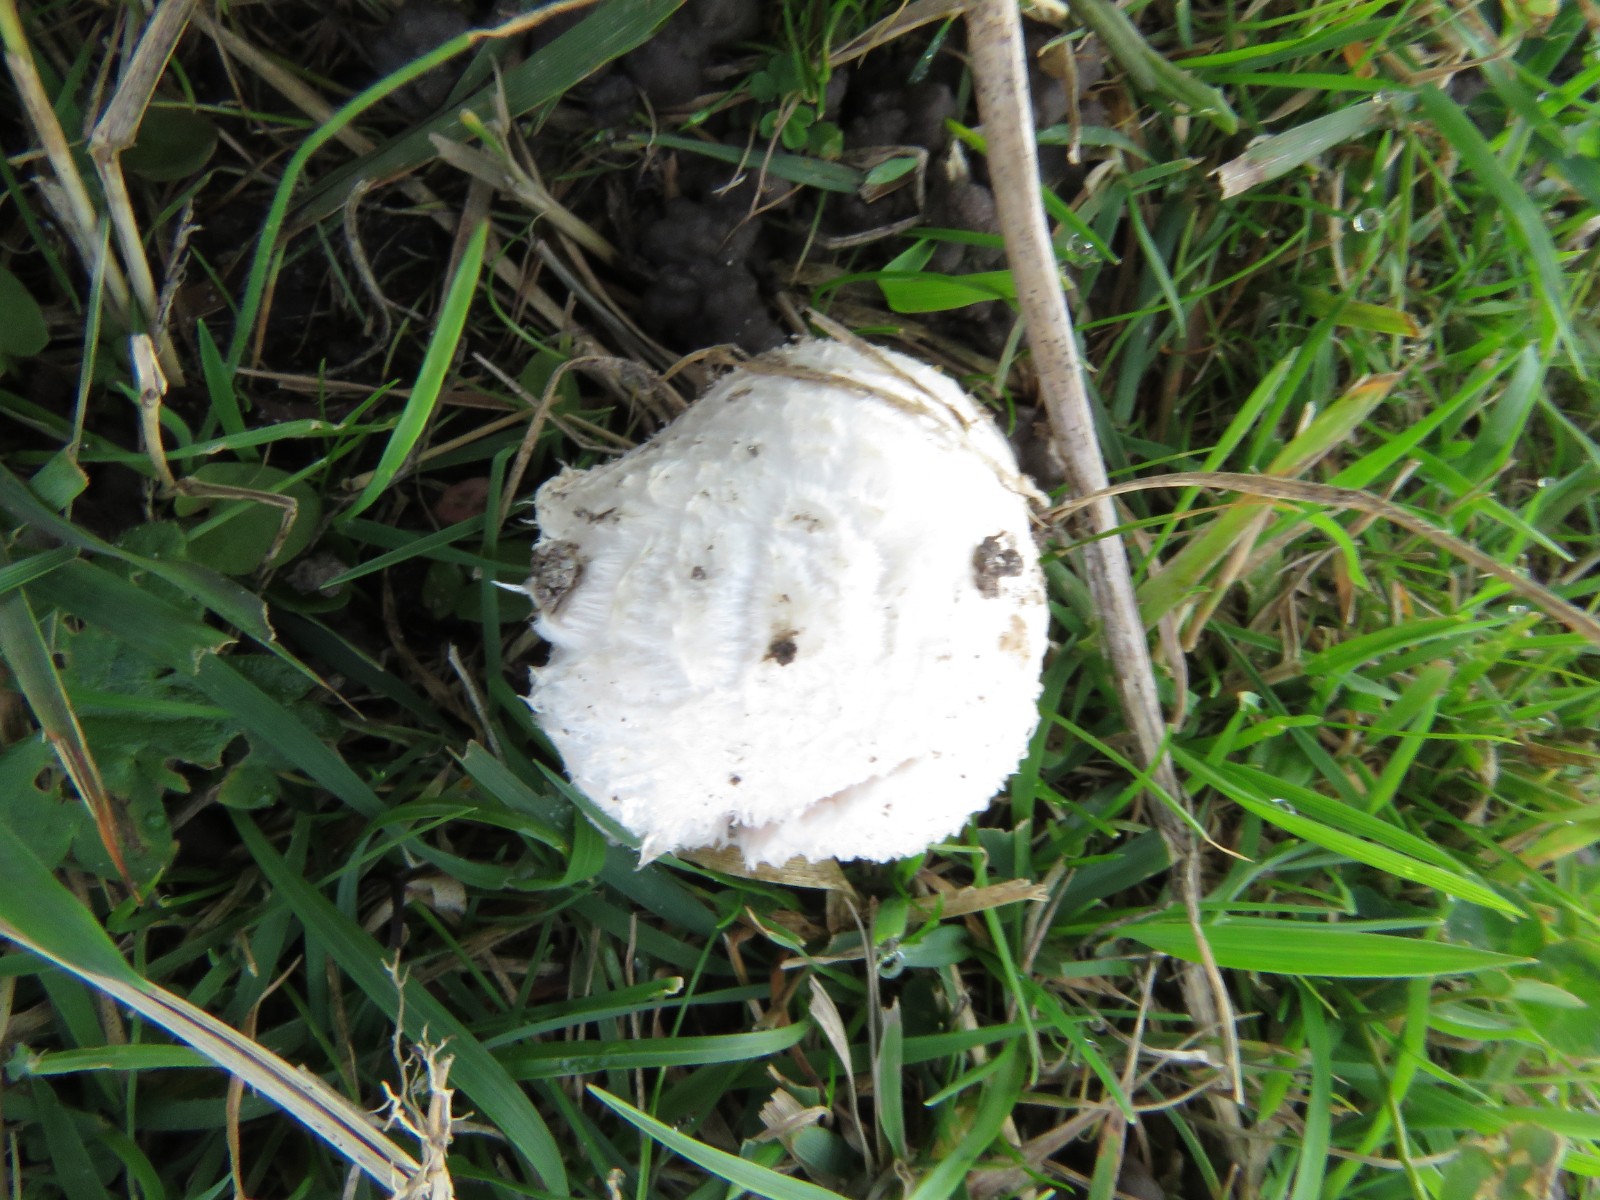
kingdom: Fungi
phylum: Basidiomycota
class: Agaricomycetes
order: Agaricales
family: Agaricaceae
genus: Agaricus
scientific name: Agaricus
